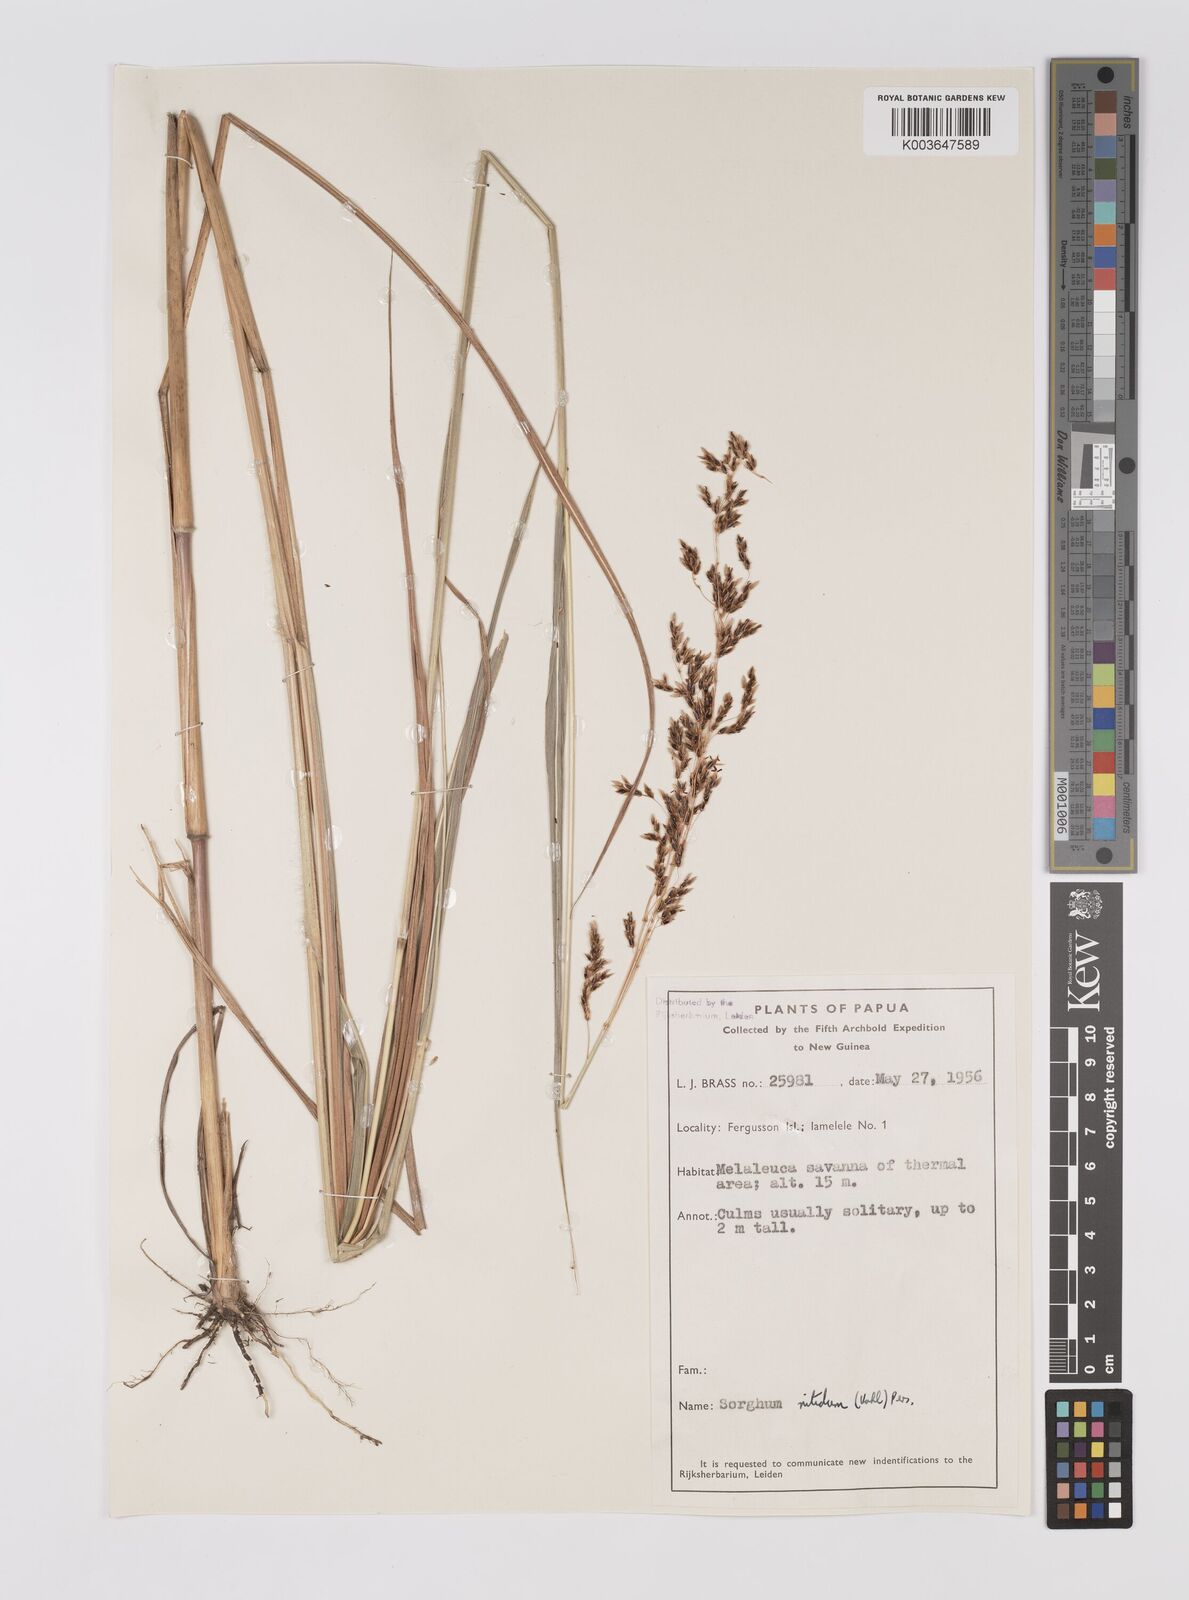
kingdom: Plantae
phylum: Tracheophyta
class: Liliopsida
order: Poales
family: Poaceae
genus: Sorghum
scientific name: Sorghum nitidum
